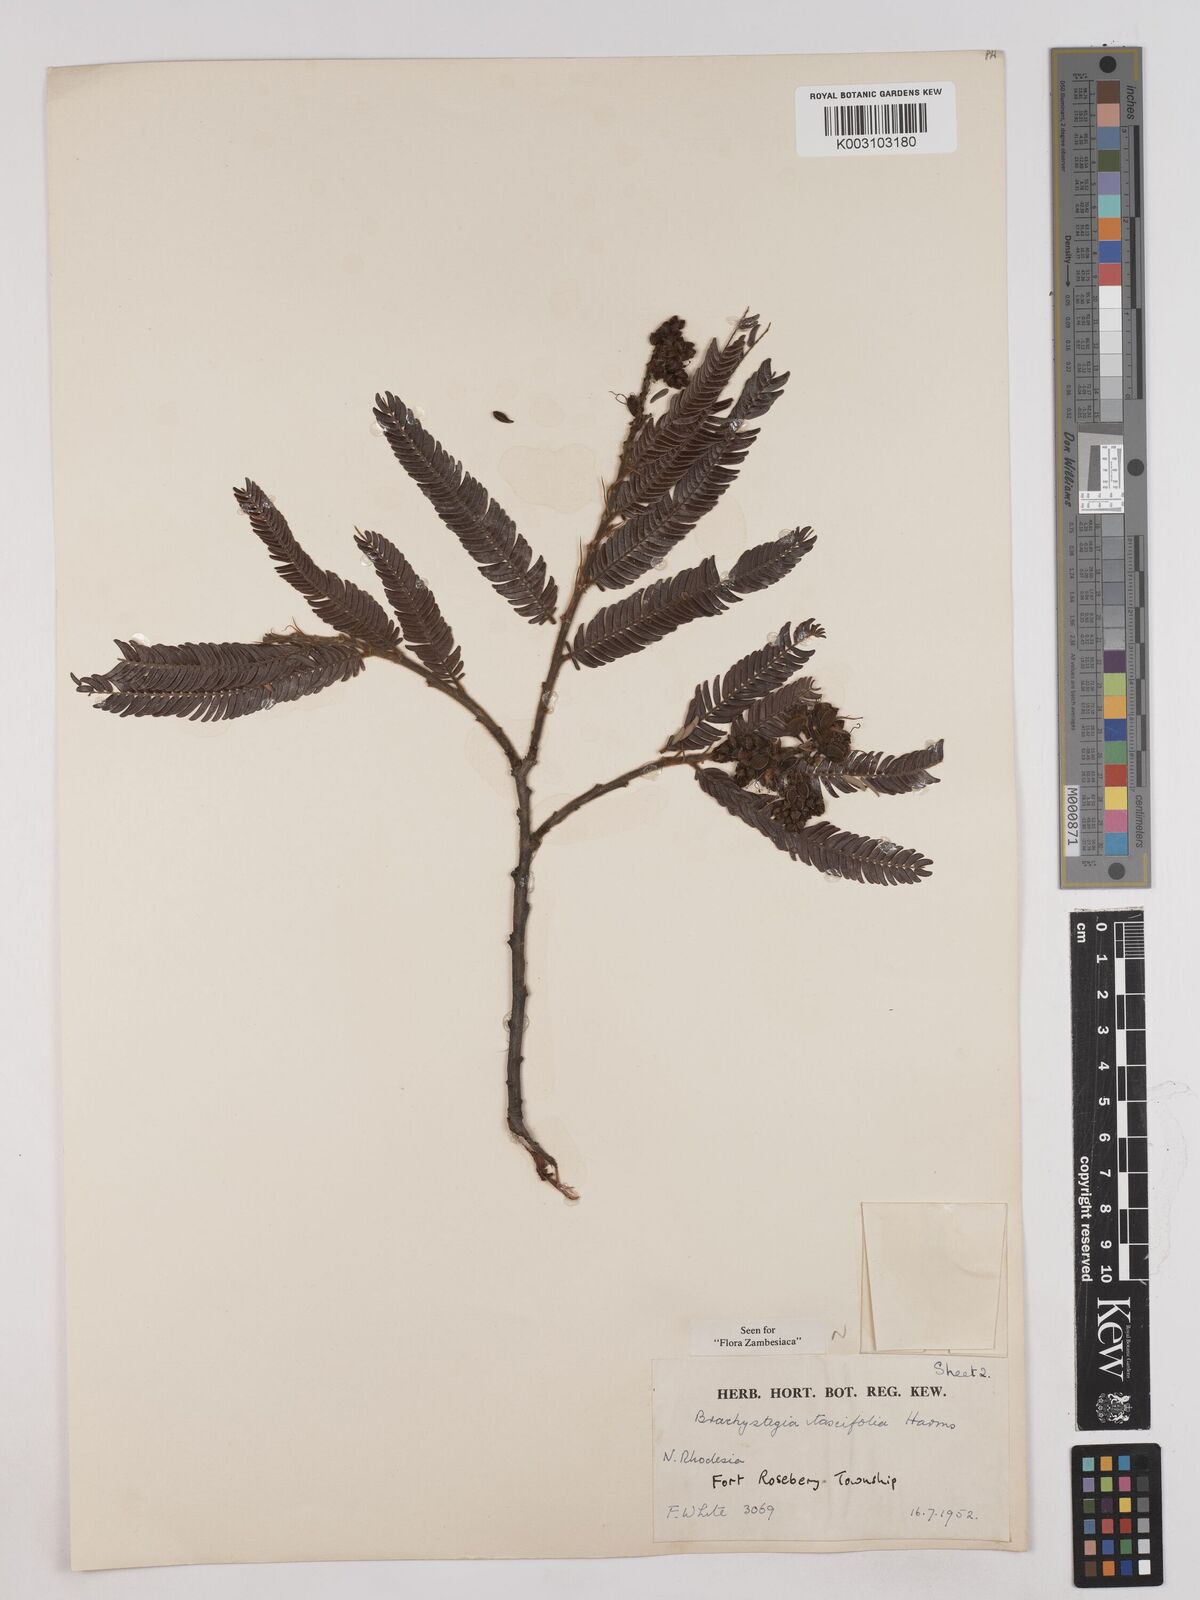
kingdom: Plantae
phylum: Tracheophyta
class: Magnoliopsida
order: Fabales
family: Fabaceae
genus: Brachystegia
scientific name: Brachystegia taxifolia
